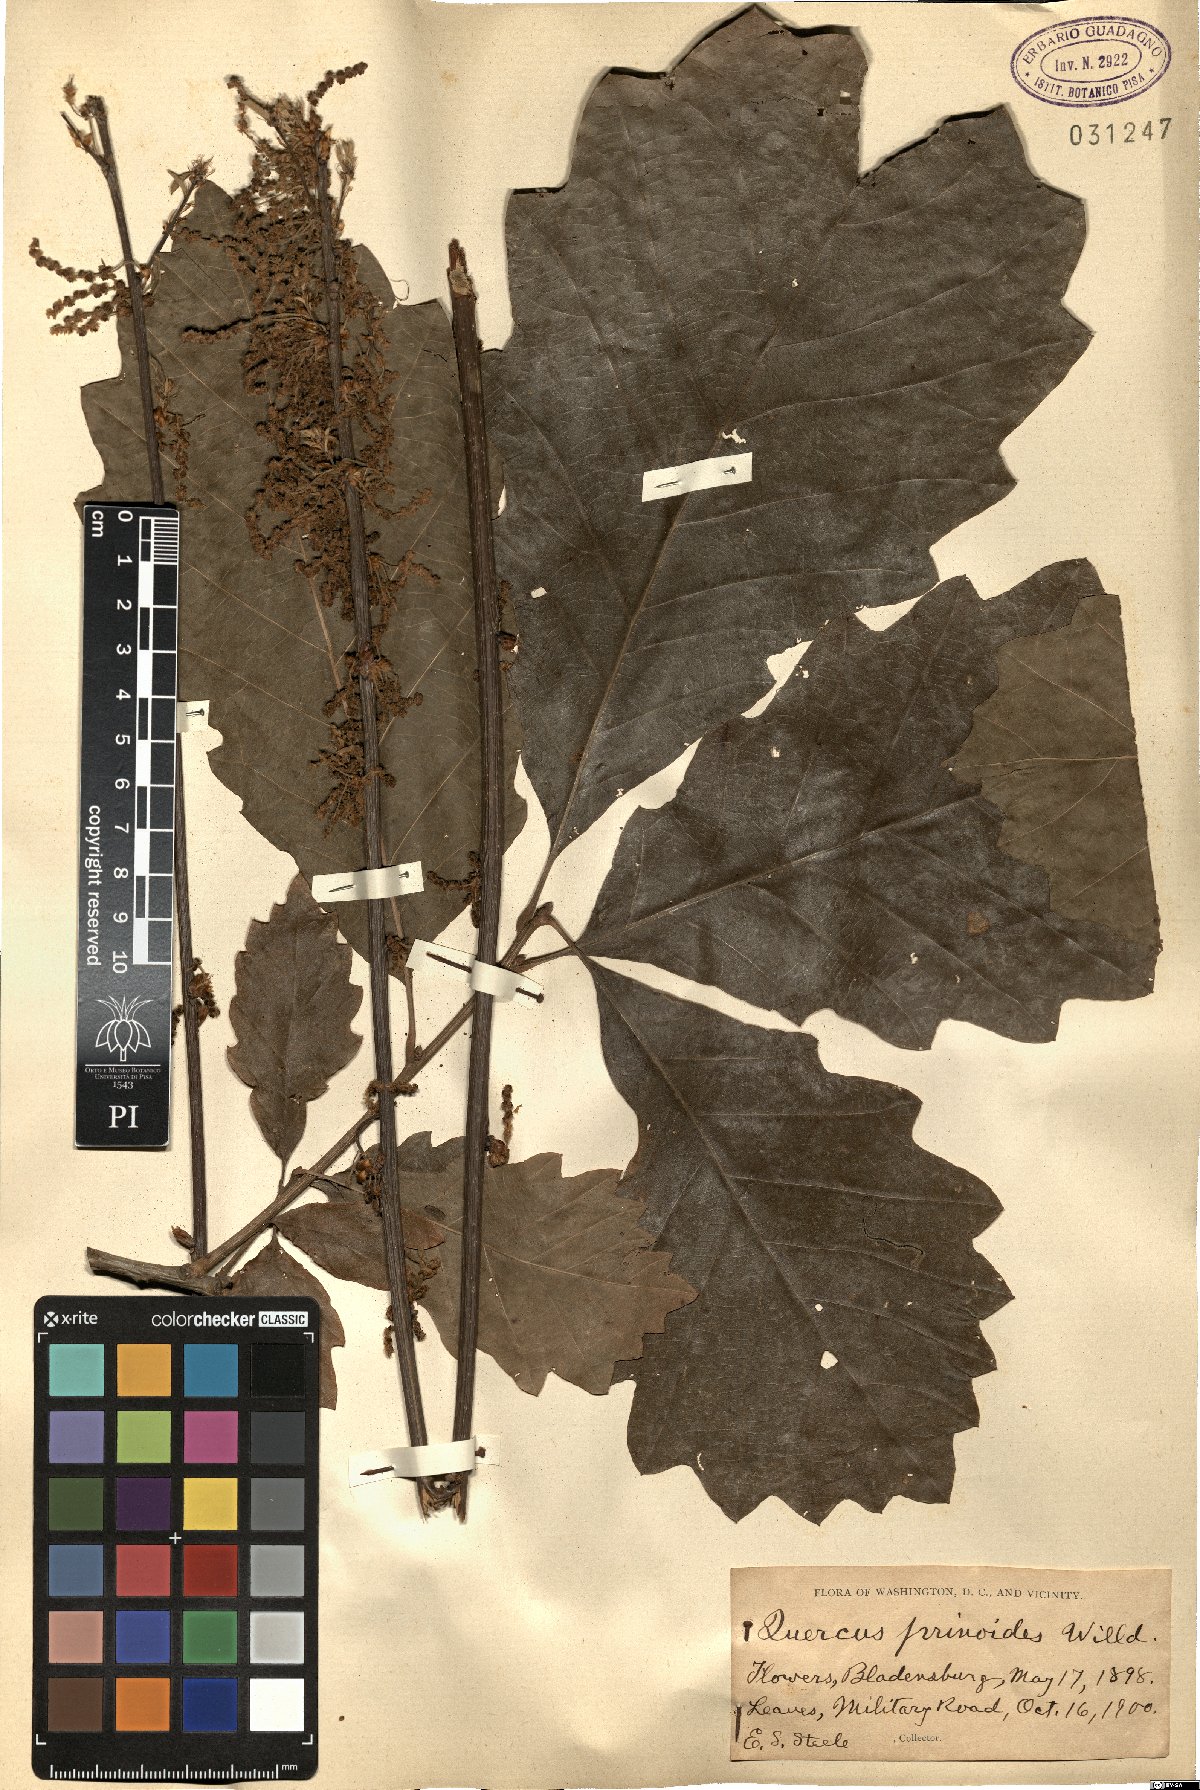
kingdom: Plantae
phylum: Tracheophyta
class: Magnoliopsida
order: Fagales
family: Fagaceae
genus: Quercus
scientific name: Quercus prinoides
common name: Dwarf chinkapin oak
